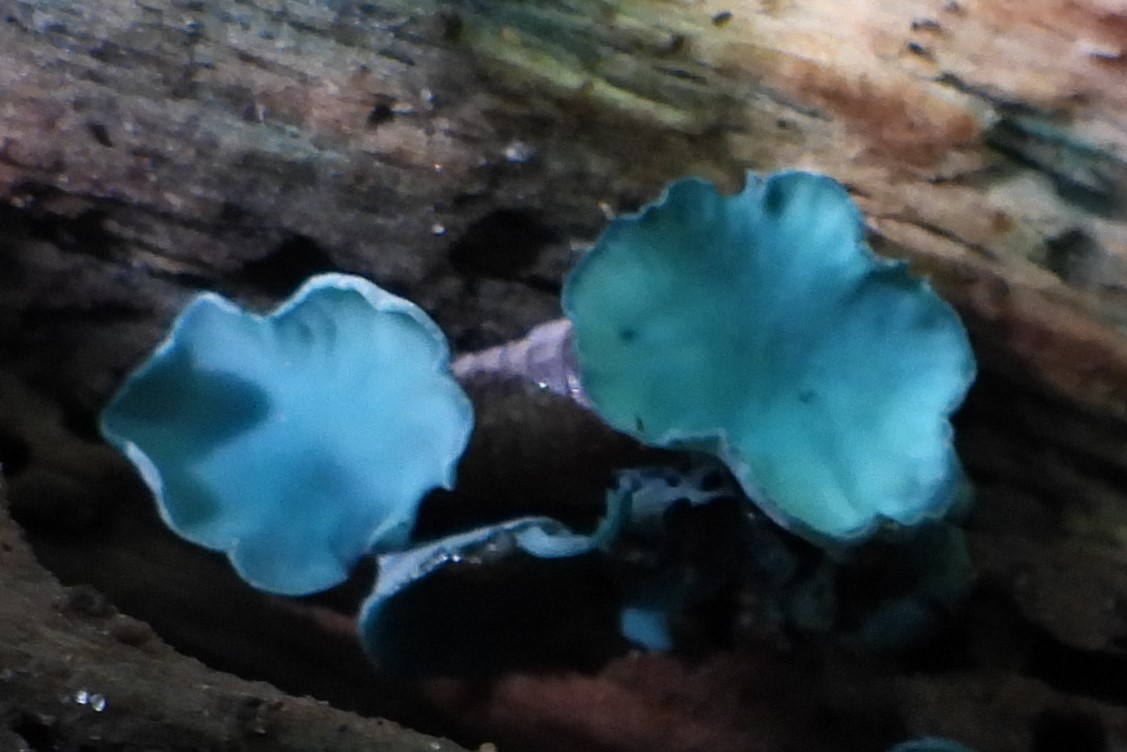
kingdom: Fungi
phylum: Ascomycota
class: Leotiomycetes
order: Helotiales
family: Chlorociboriaceae
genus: Chlorociboria
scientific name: Chlorociboria aeruginascens
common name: almindelig grønskive
